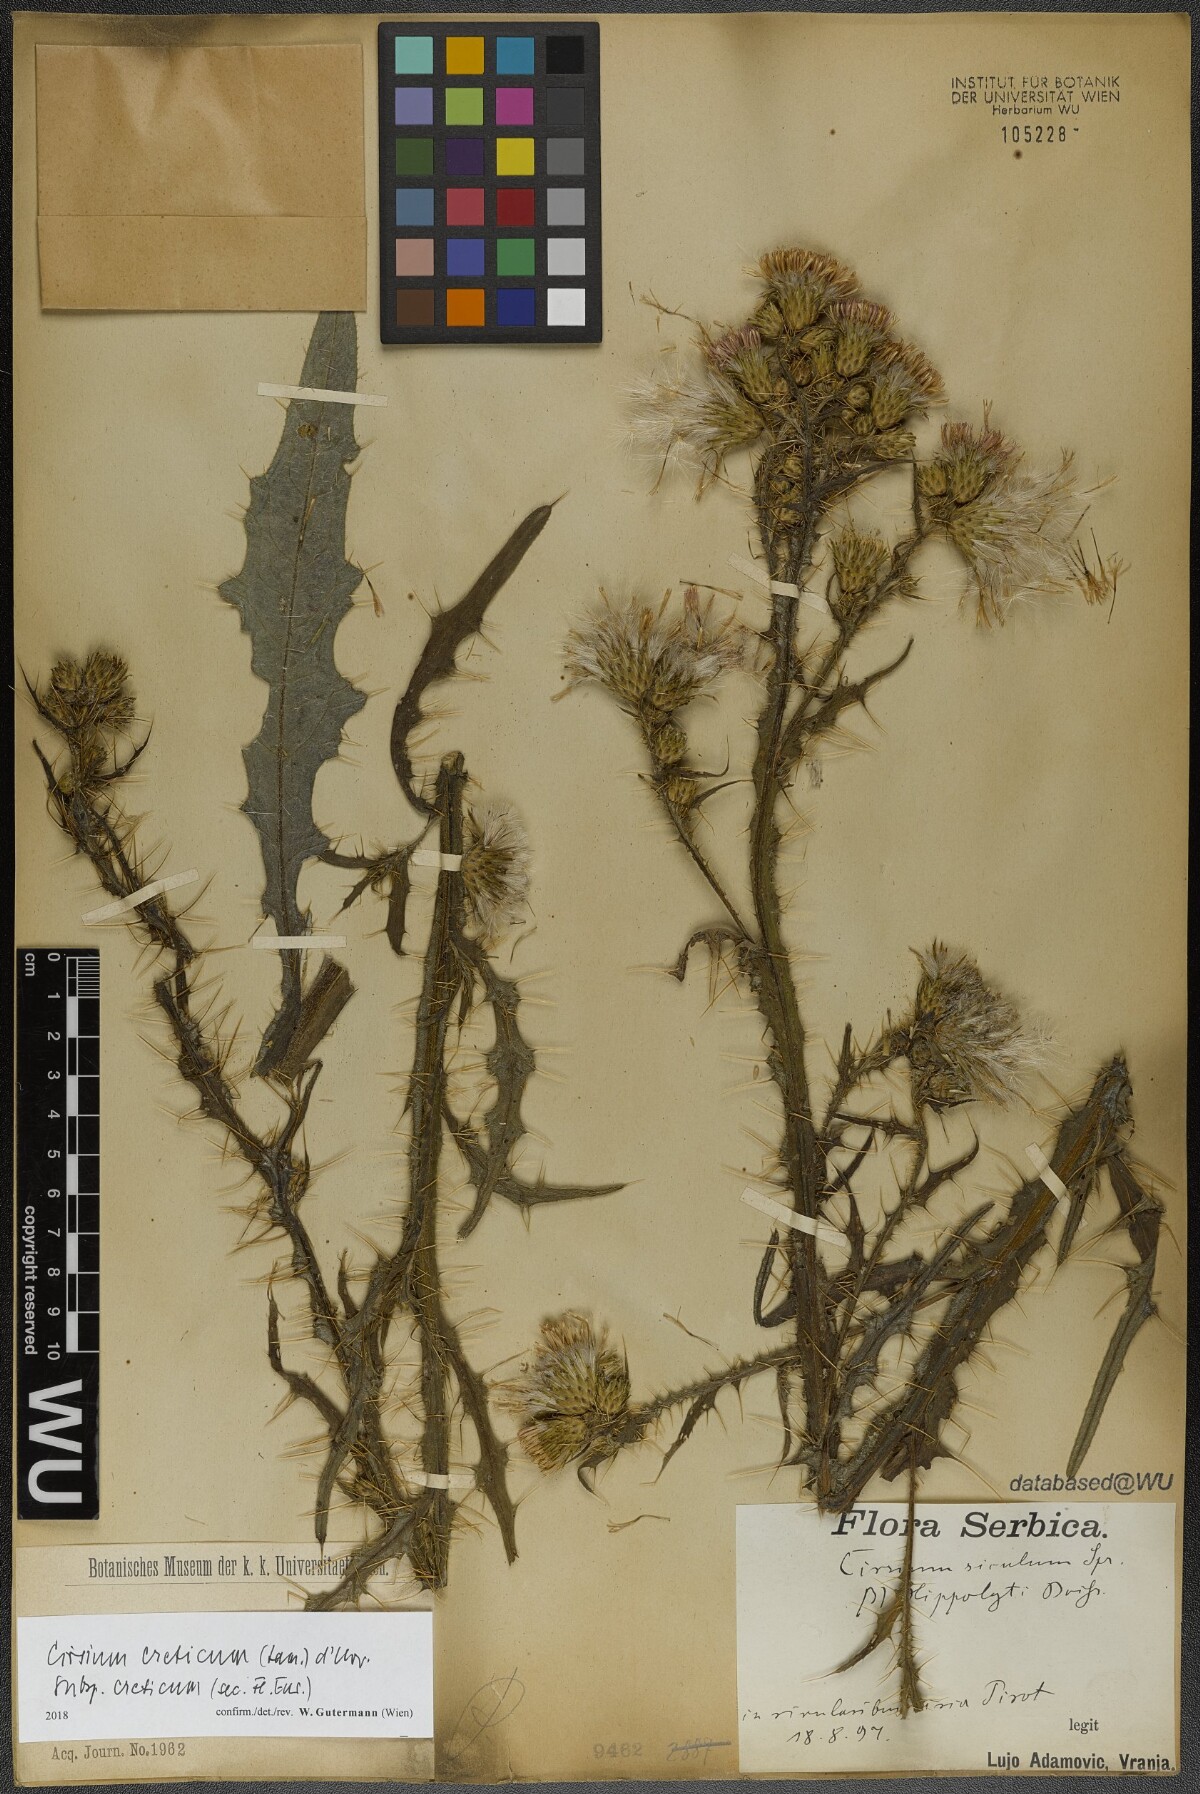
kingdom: Plantae
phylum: Tracheophyta
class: Magnoliopsida
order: Asterales
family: Asteraceae
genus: Cirsium
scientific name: Cirsium creticum
